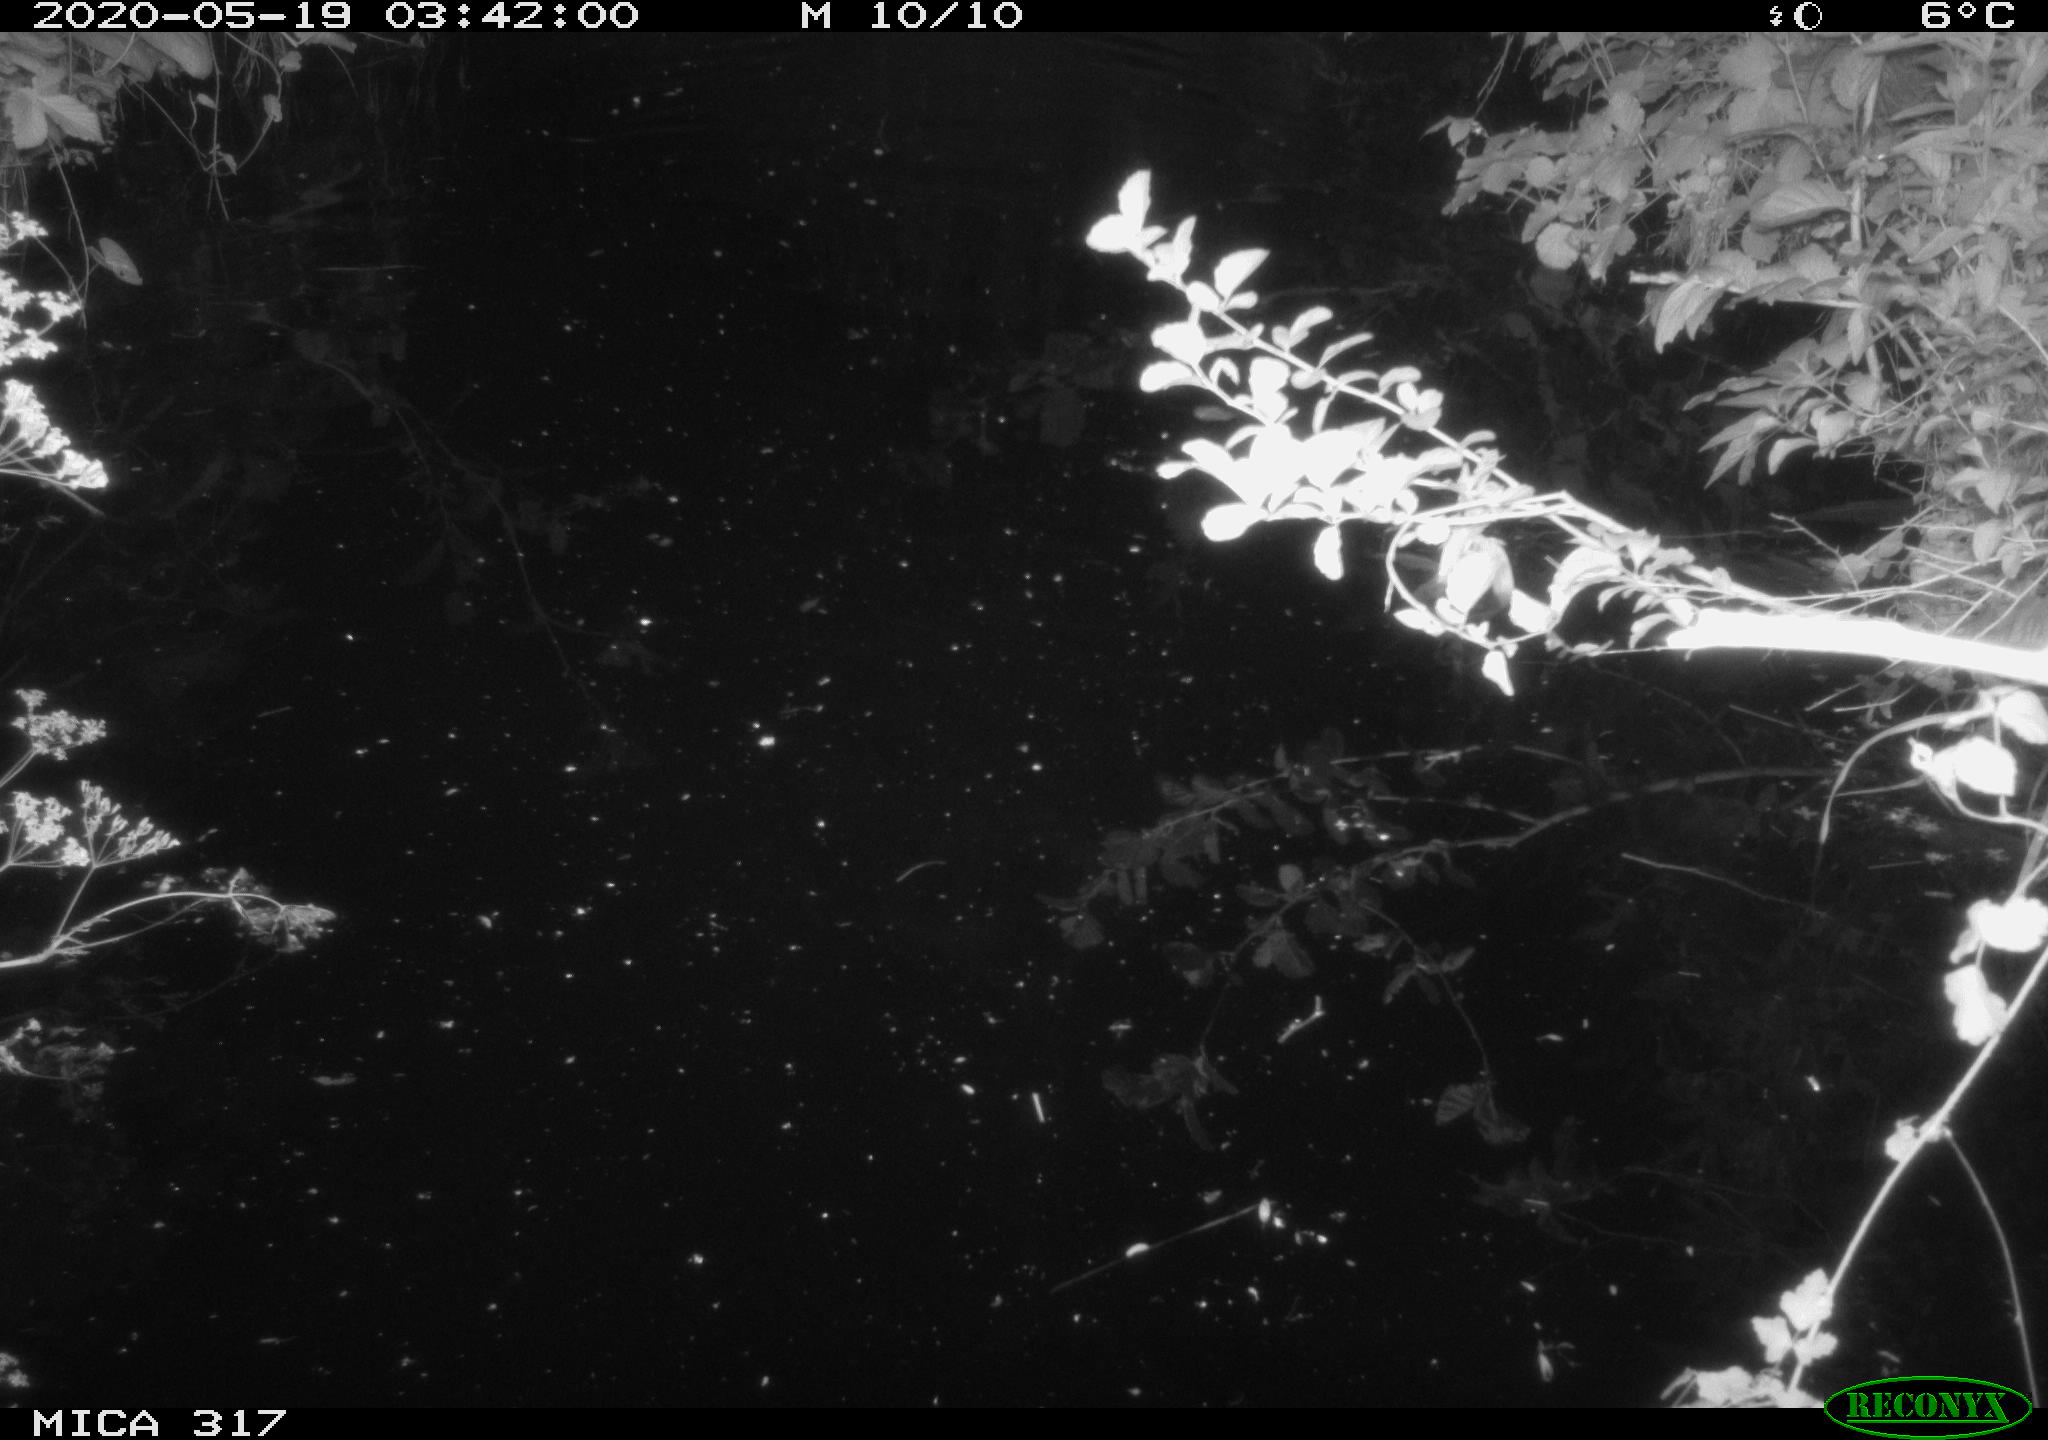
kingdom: Animalia
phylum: Chordata
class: Aves
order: Anseriformes
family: Anatidae
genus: Anas
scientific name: Anas platyrhynchos
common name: Mallard
